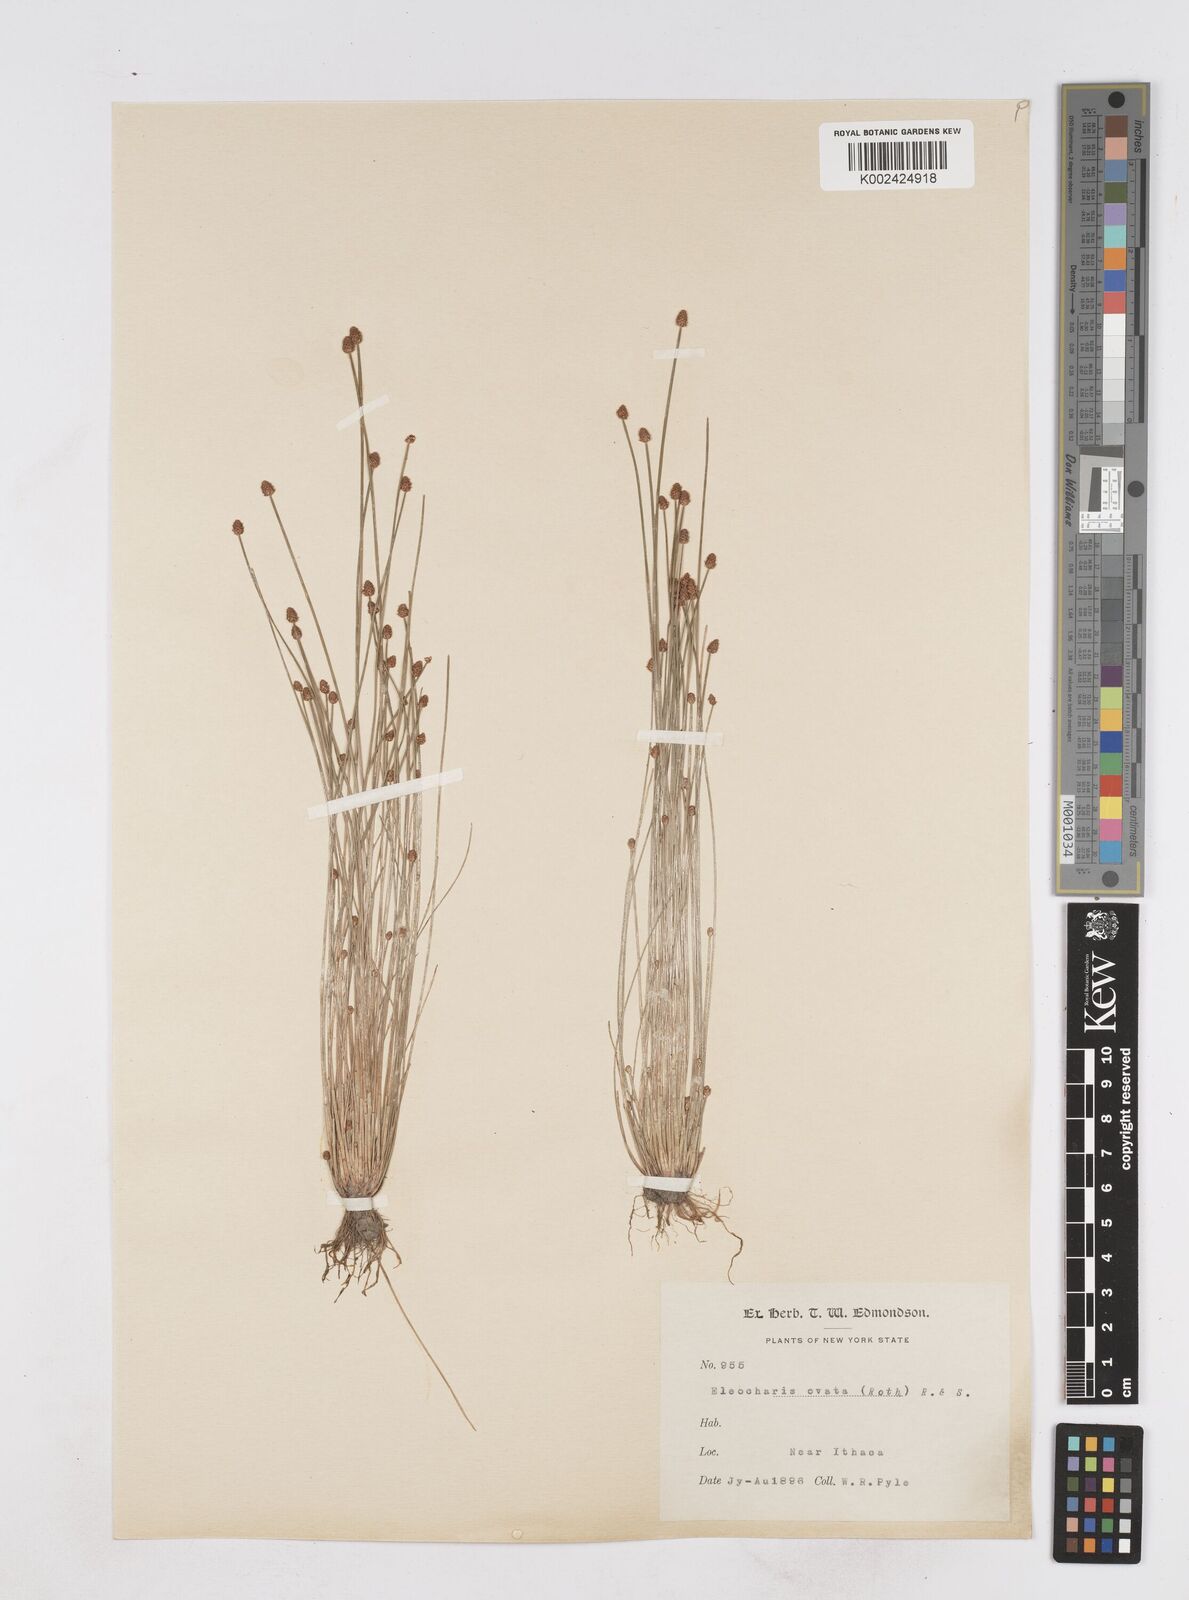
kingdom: Plantae
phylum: Tracheophyta
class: Liliopsida
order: Poales
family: Cyperaceae
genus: Eleocharis
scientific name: Eleocharis ovata
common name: Oval spike-rush
